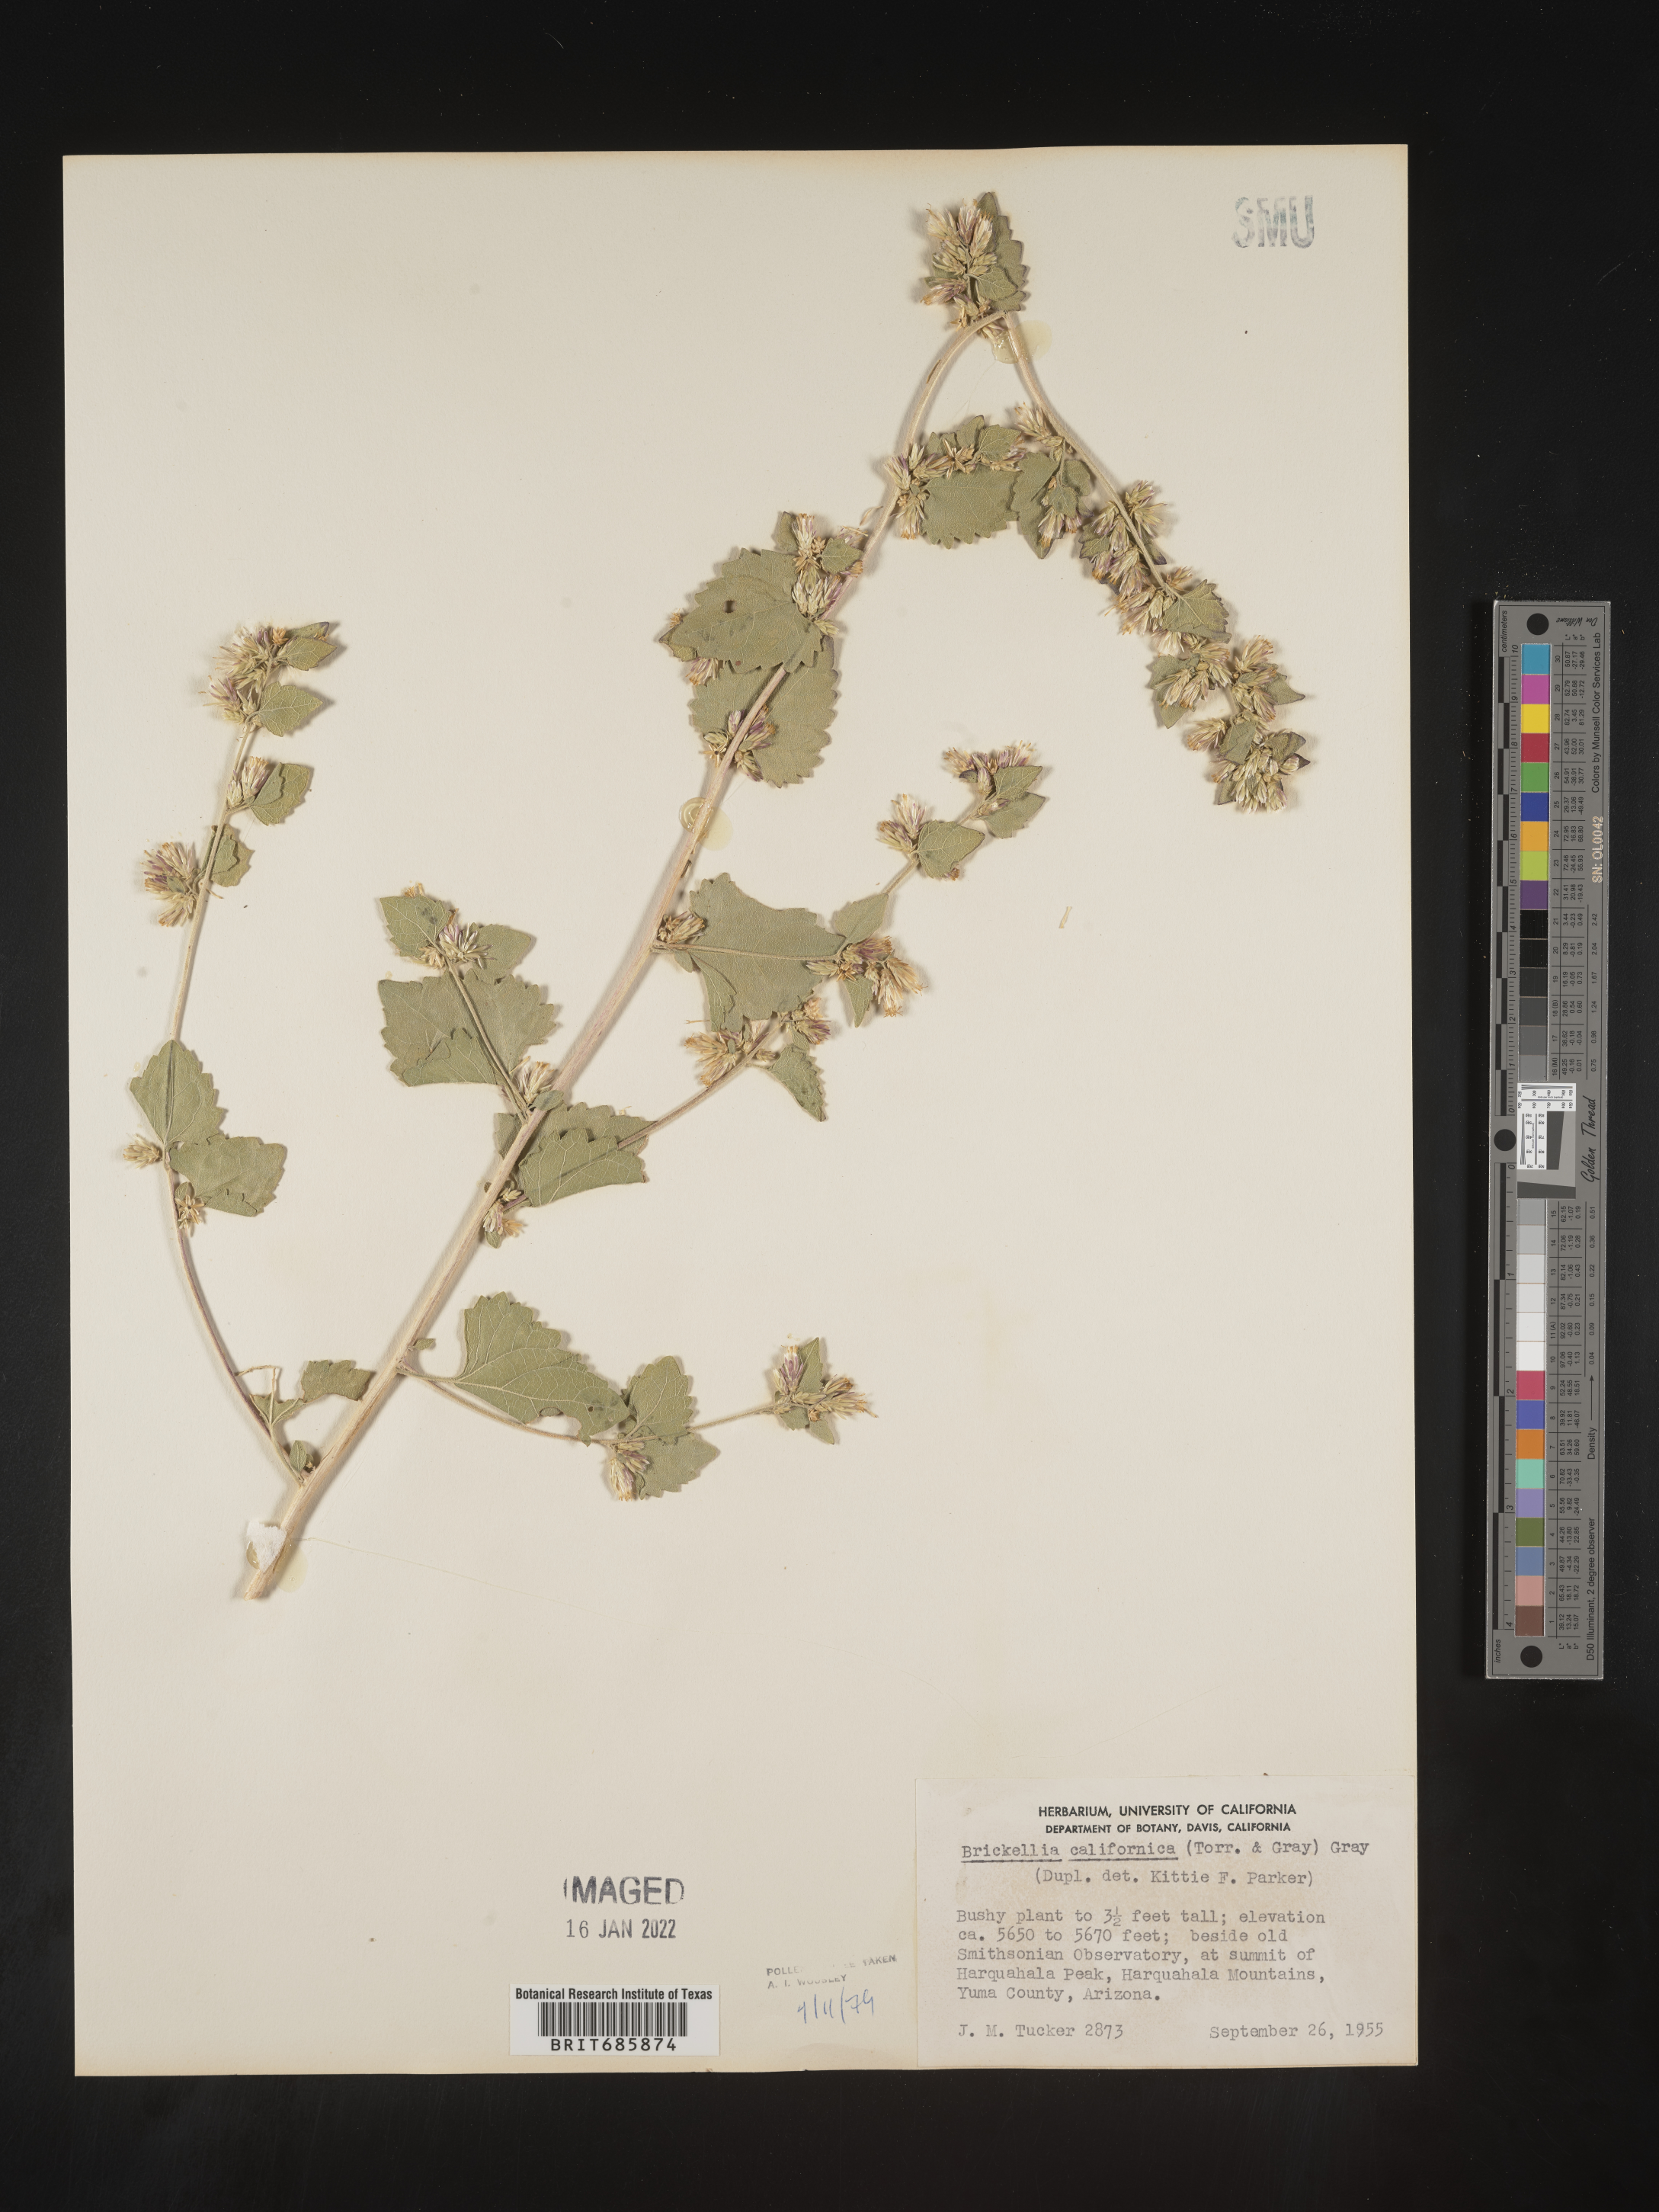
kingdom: Plantae
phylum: Tracheophyta
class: Magnoliopsida
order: Asterales
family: Asteraceae
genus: Brickellia
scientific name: Brickellia californica
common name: California brickellbush
